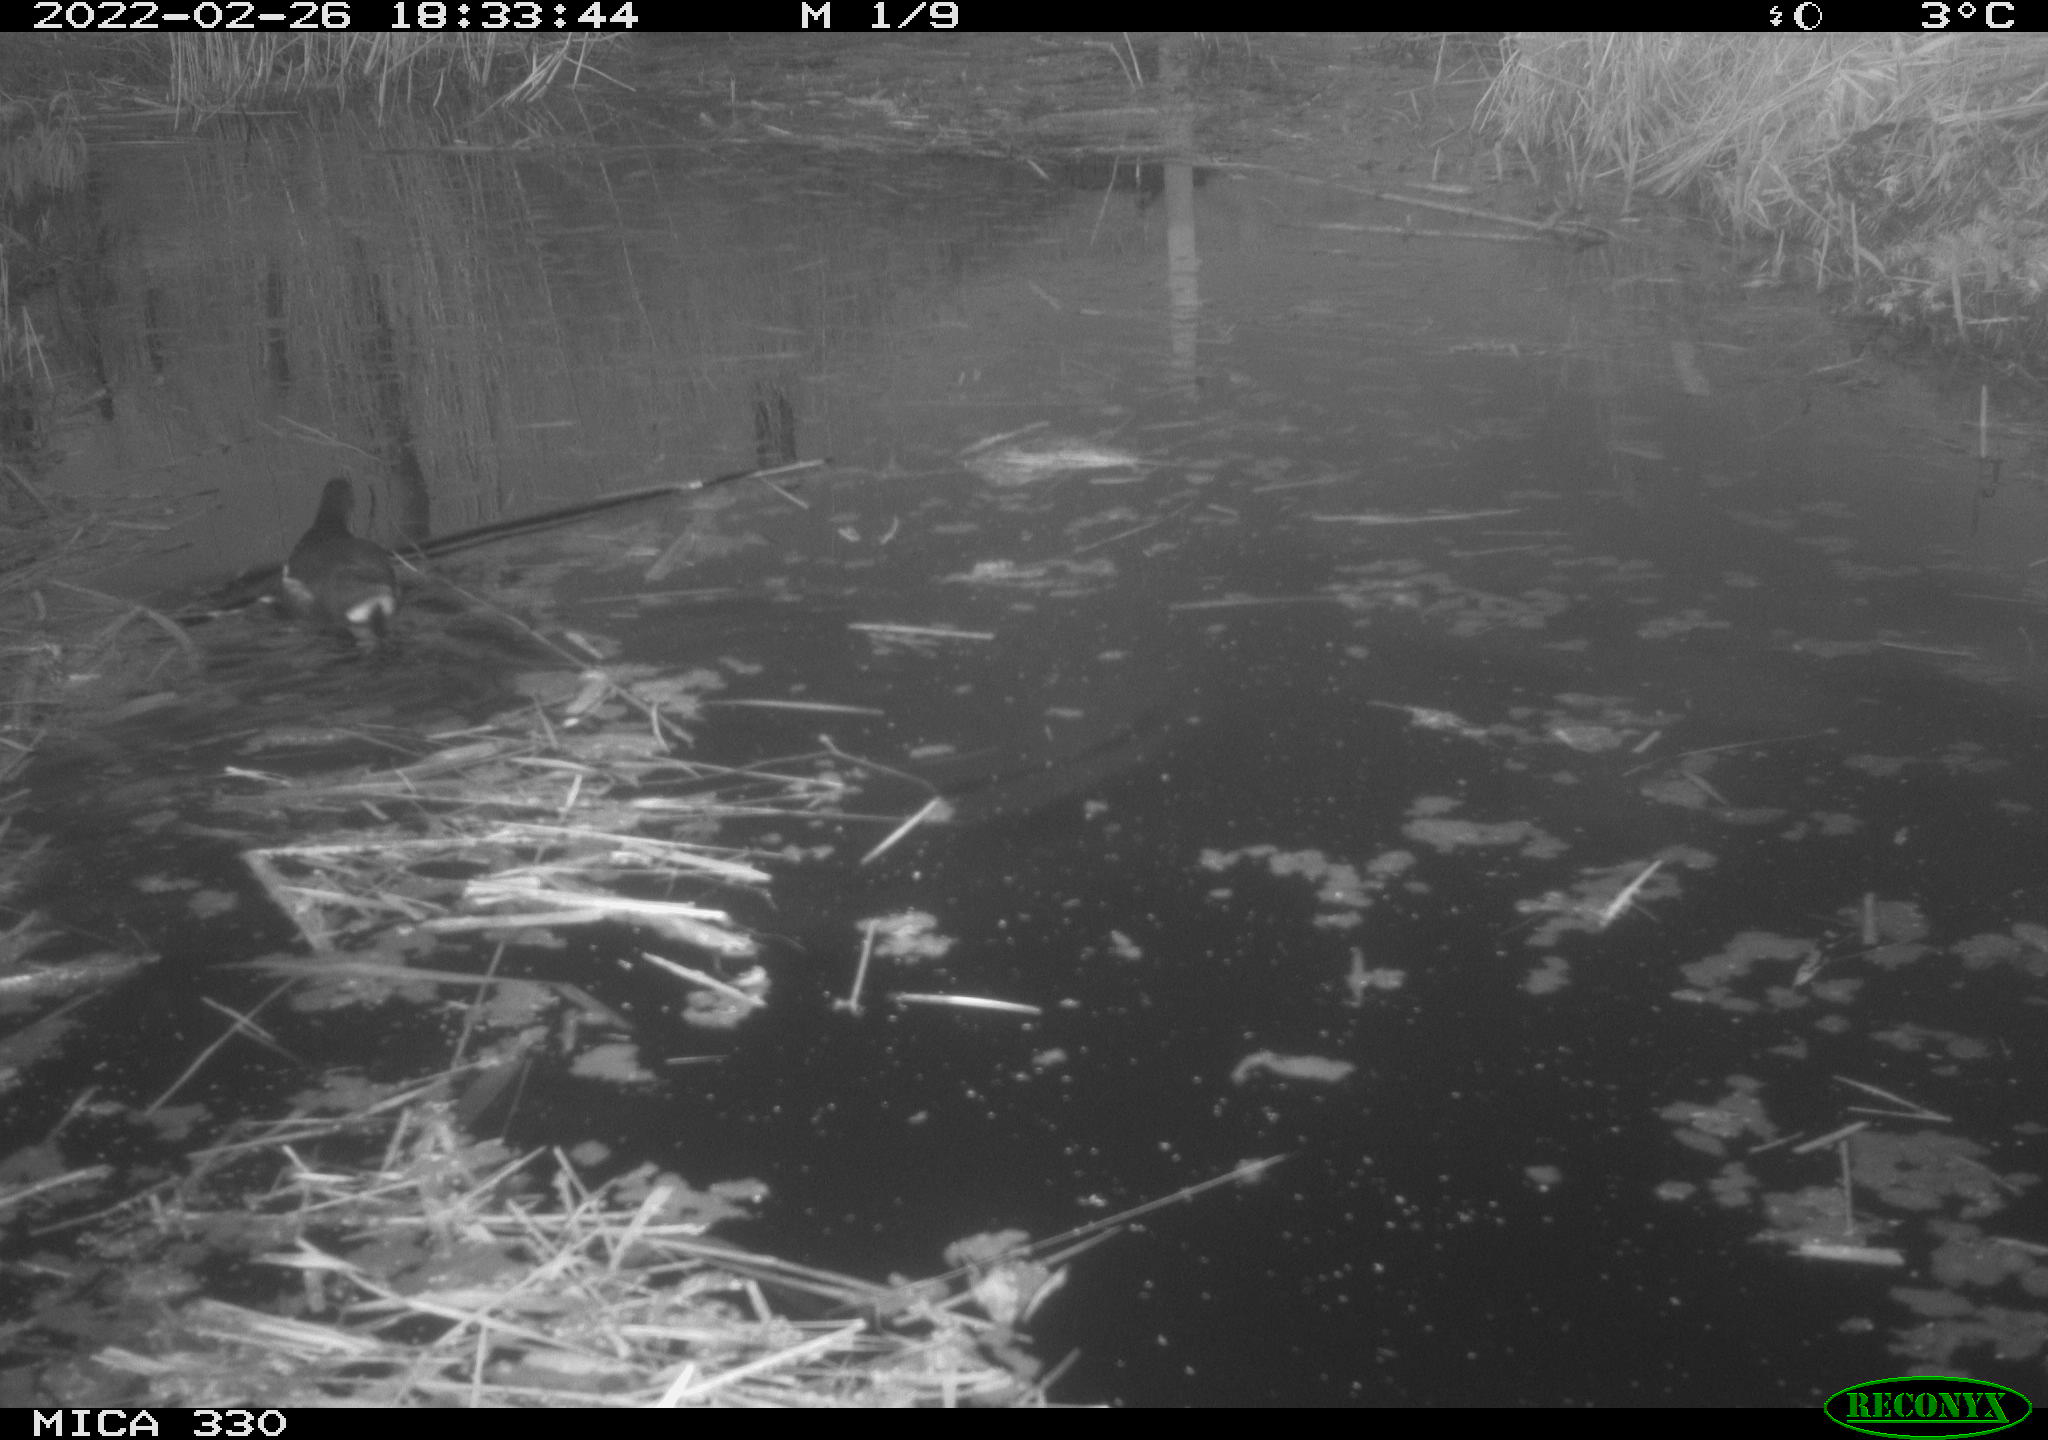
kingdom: Animalia
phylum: Chordata
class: Aves
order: Gruiformes
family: Rallidae
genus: Gallinula
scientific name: Gallinula chloropus
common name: Common moorhen
